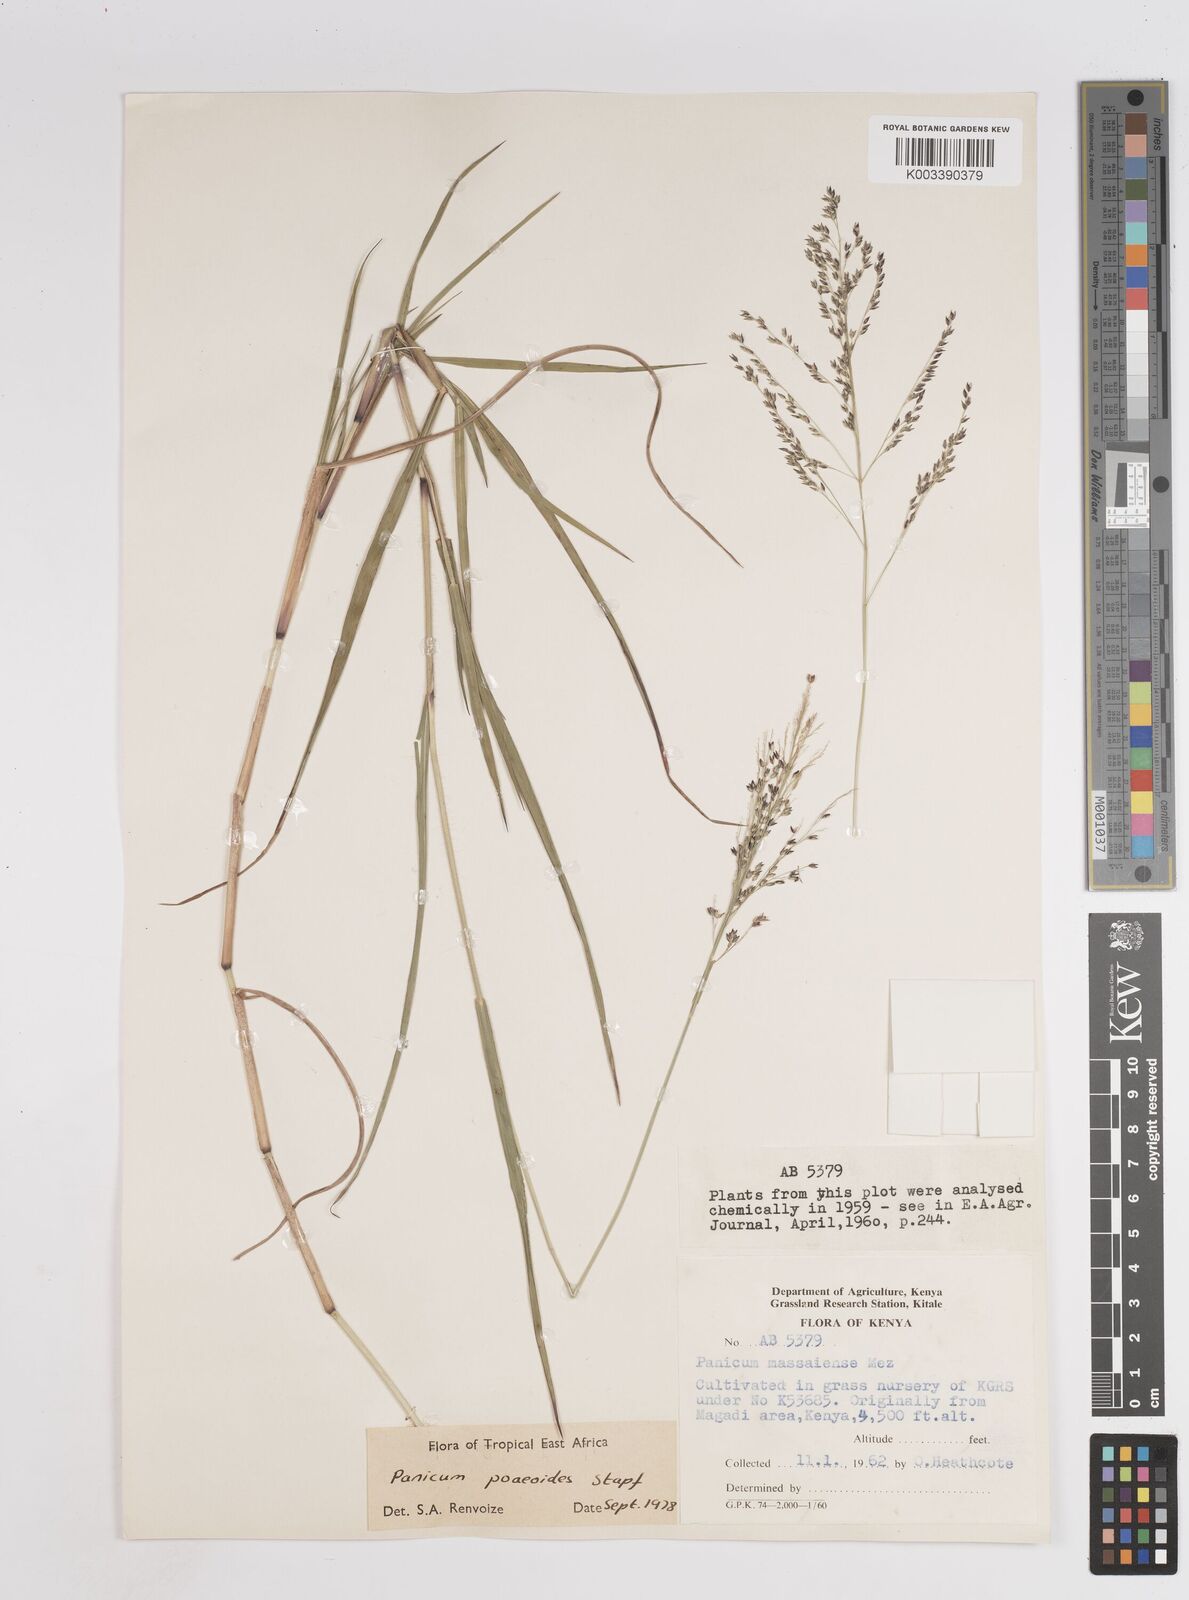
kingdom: Plantae
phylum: Tracheophyta
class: Liliopsida
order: Poales
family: Poaceae
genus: Panicum
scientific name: Panicum
